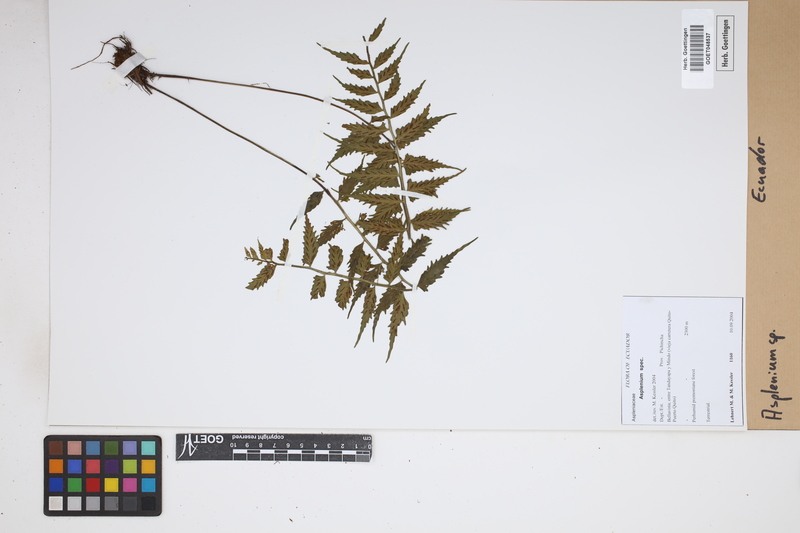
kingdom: Plantae
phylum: Tracheophyta
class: Polypodiopsida
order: Polypodiales
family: Aspleniaceae
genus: Asplenium
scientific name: Asplenium
